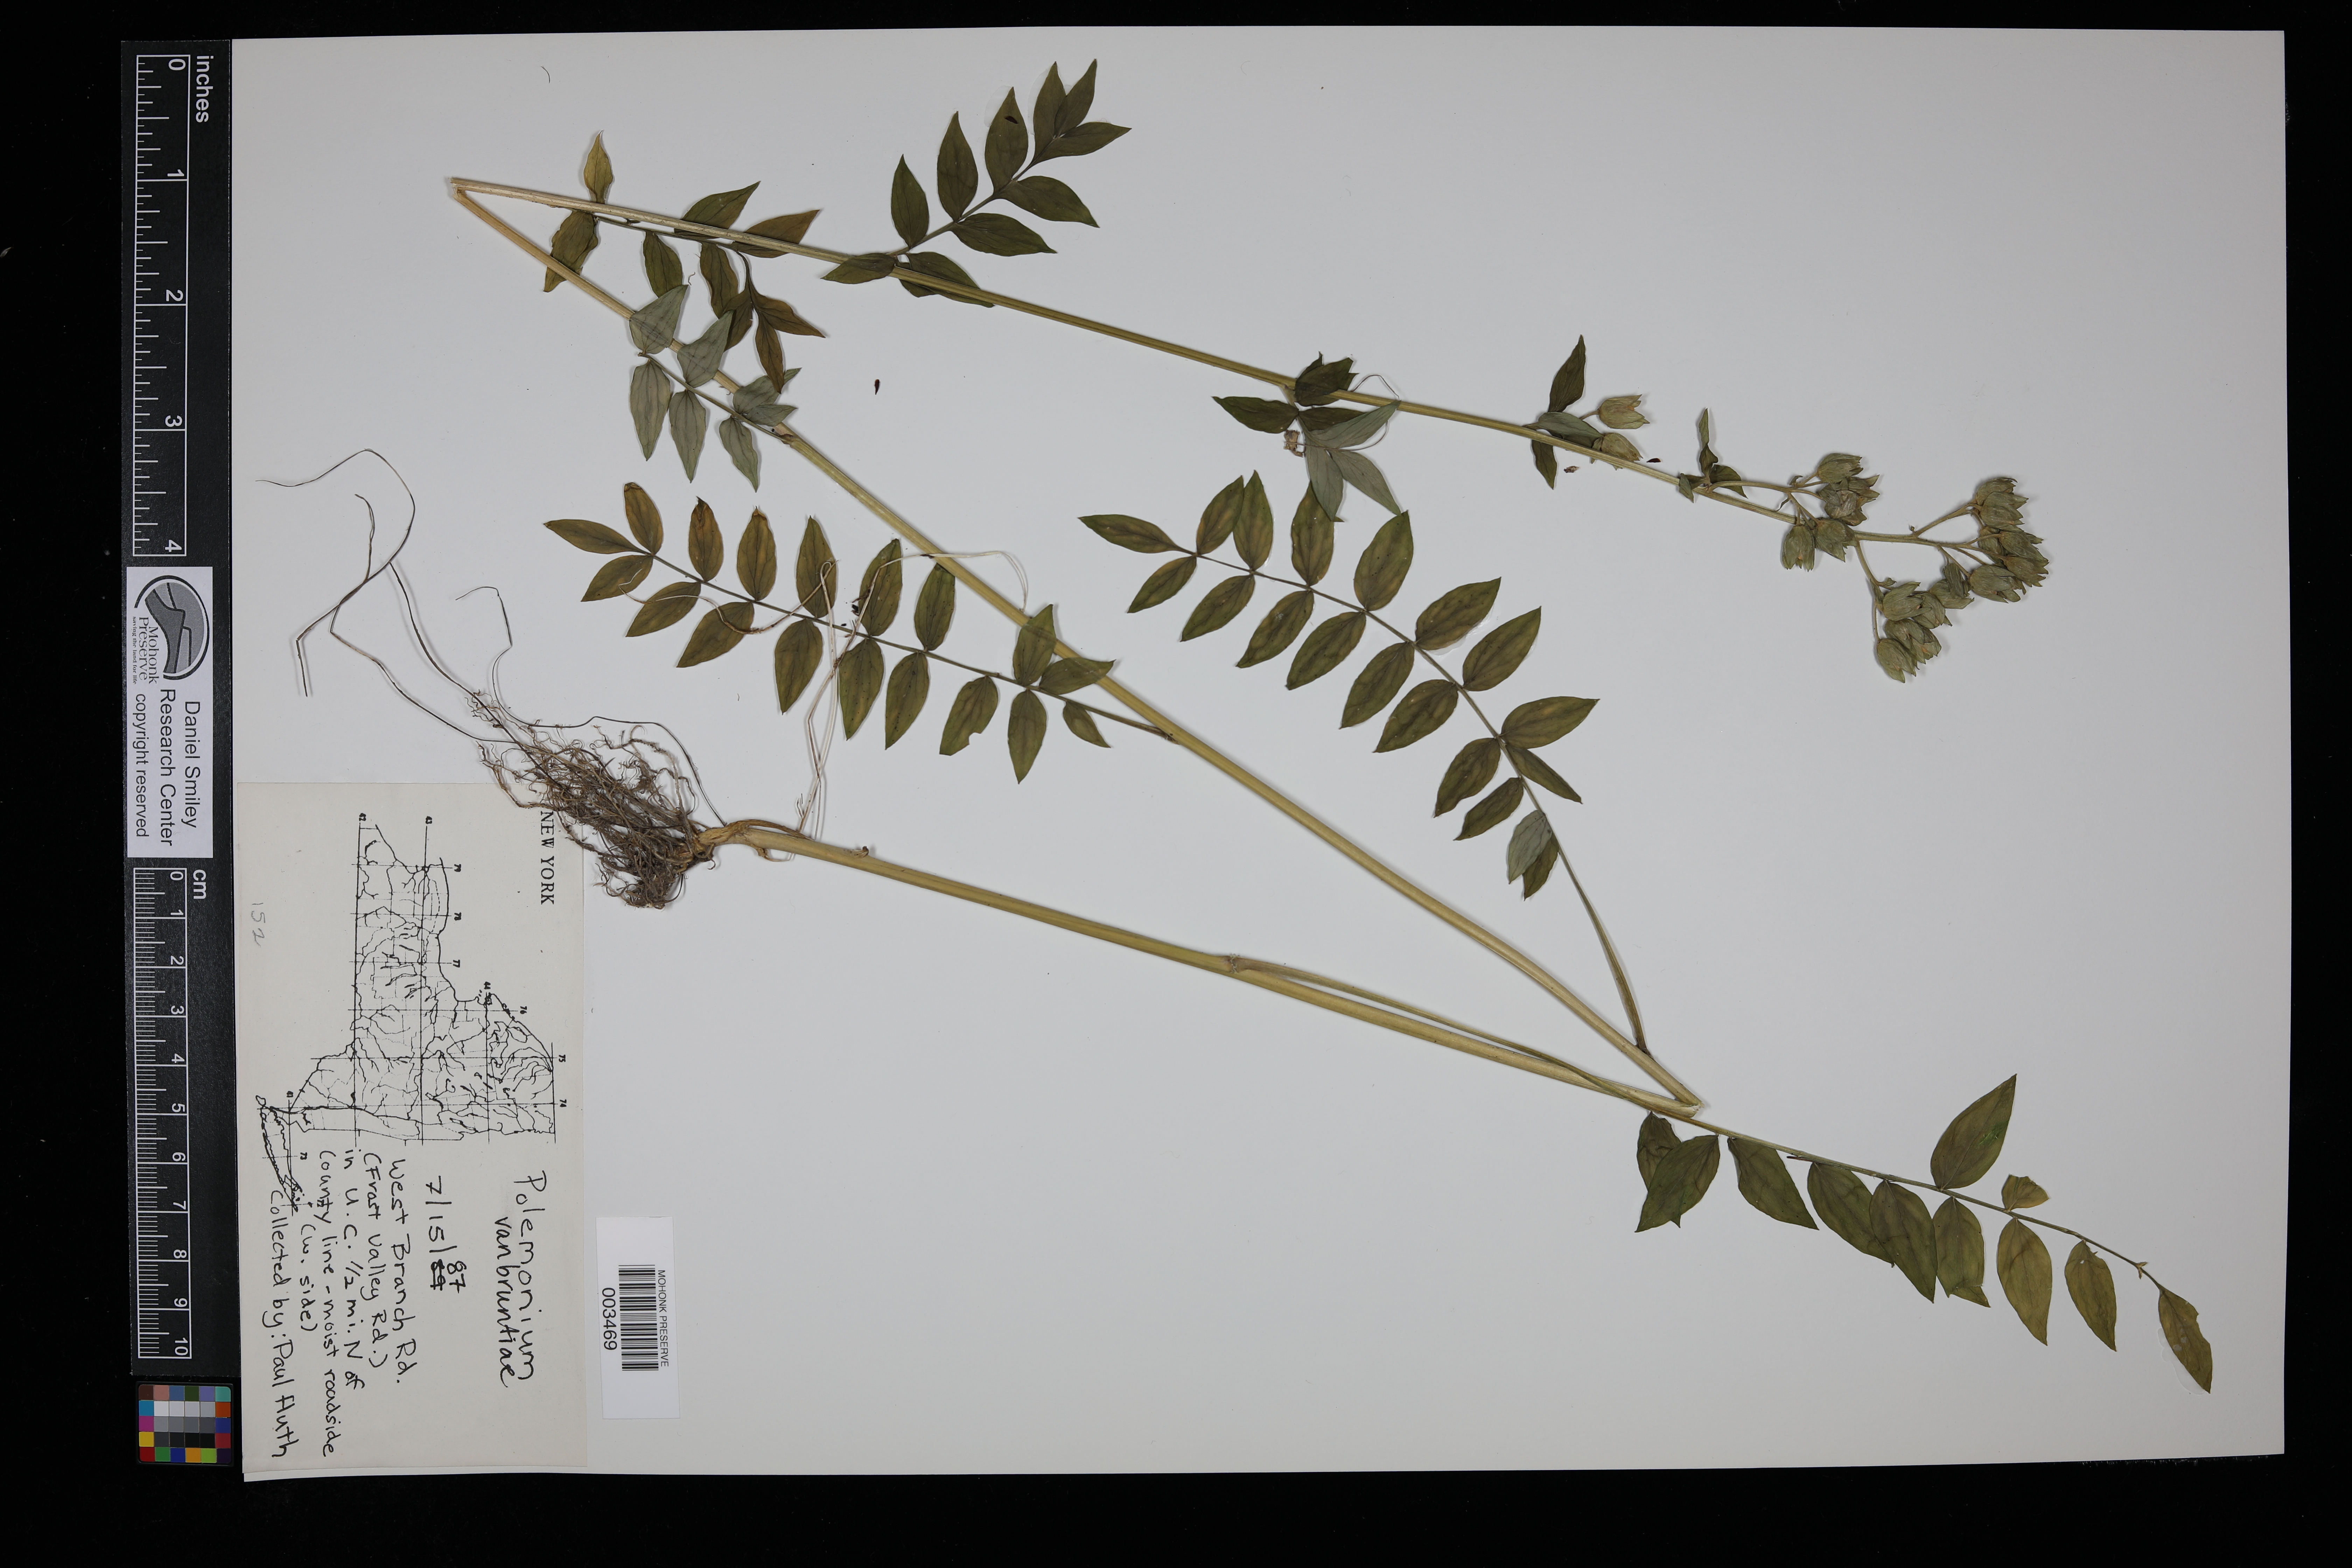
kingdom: Plantae
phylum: Tracheophyta
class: Magnoliopsida
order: Ericales
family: Polemoniaceae
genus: Polemonium
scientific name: Polemonium vanbruntiae
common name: Bog jacob's-ladder
